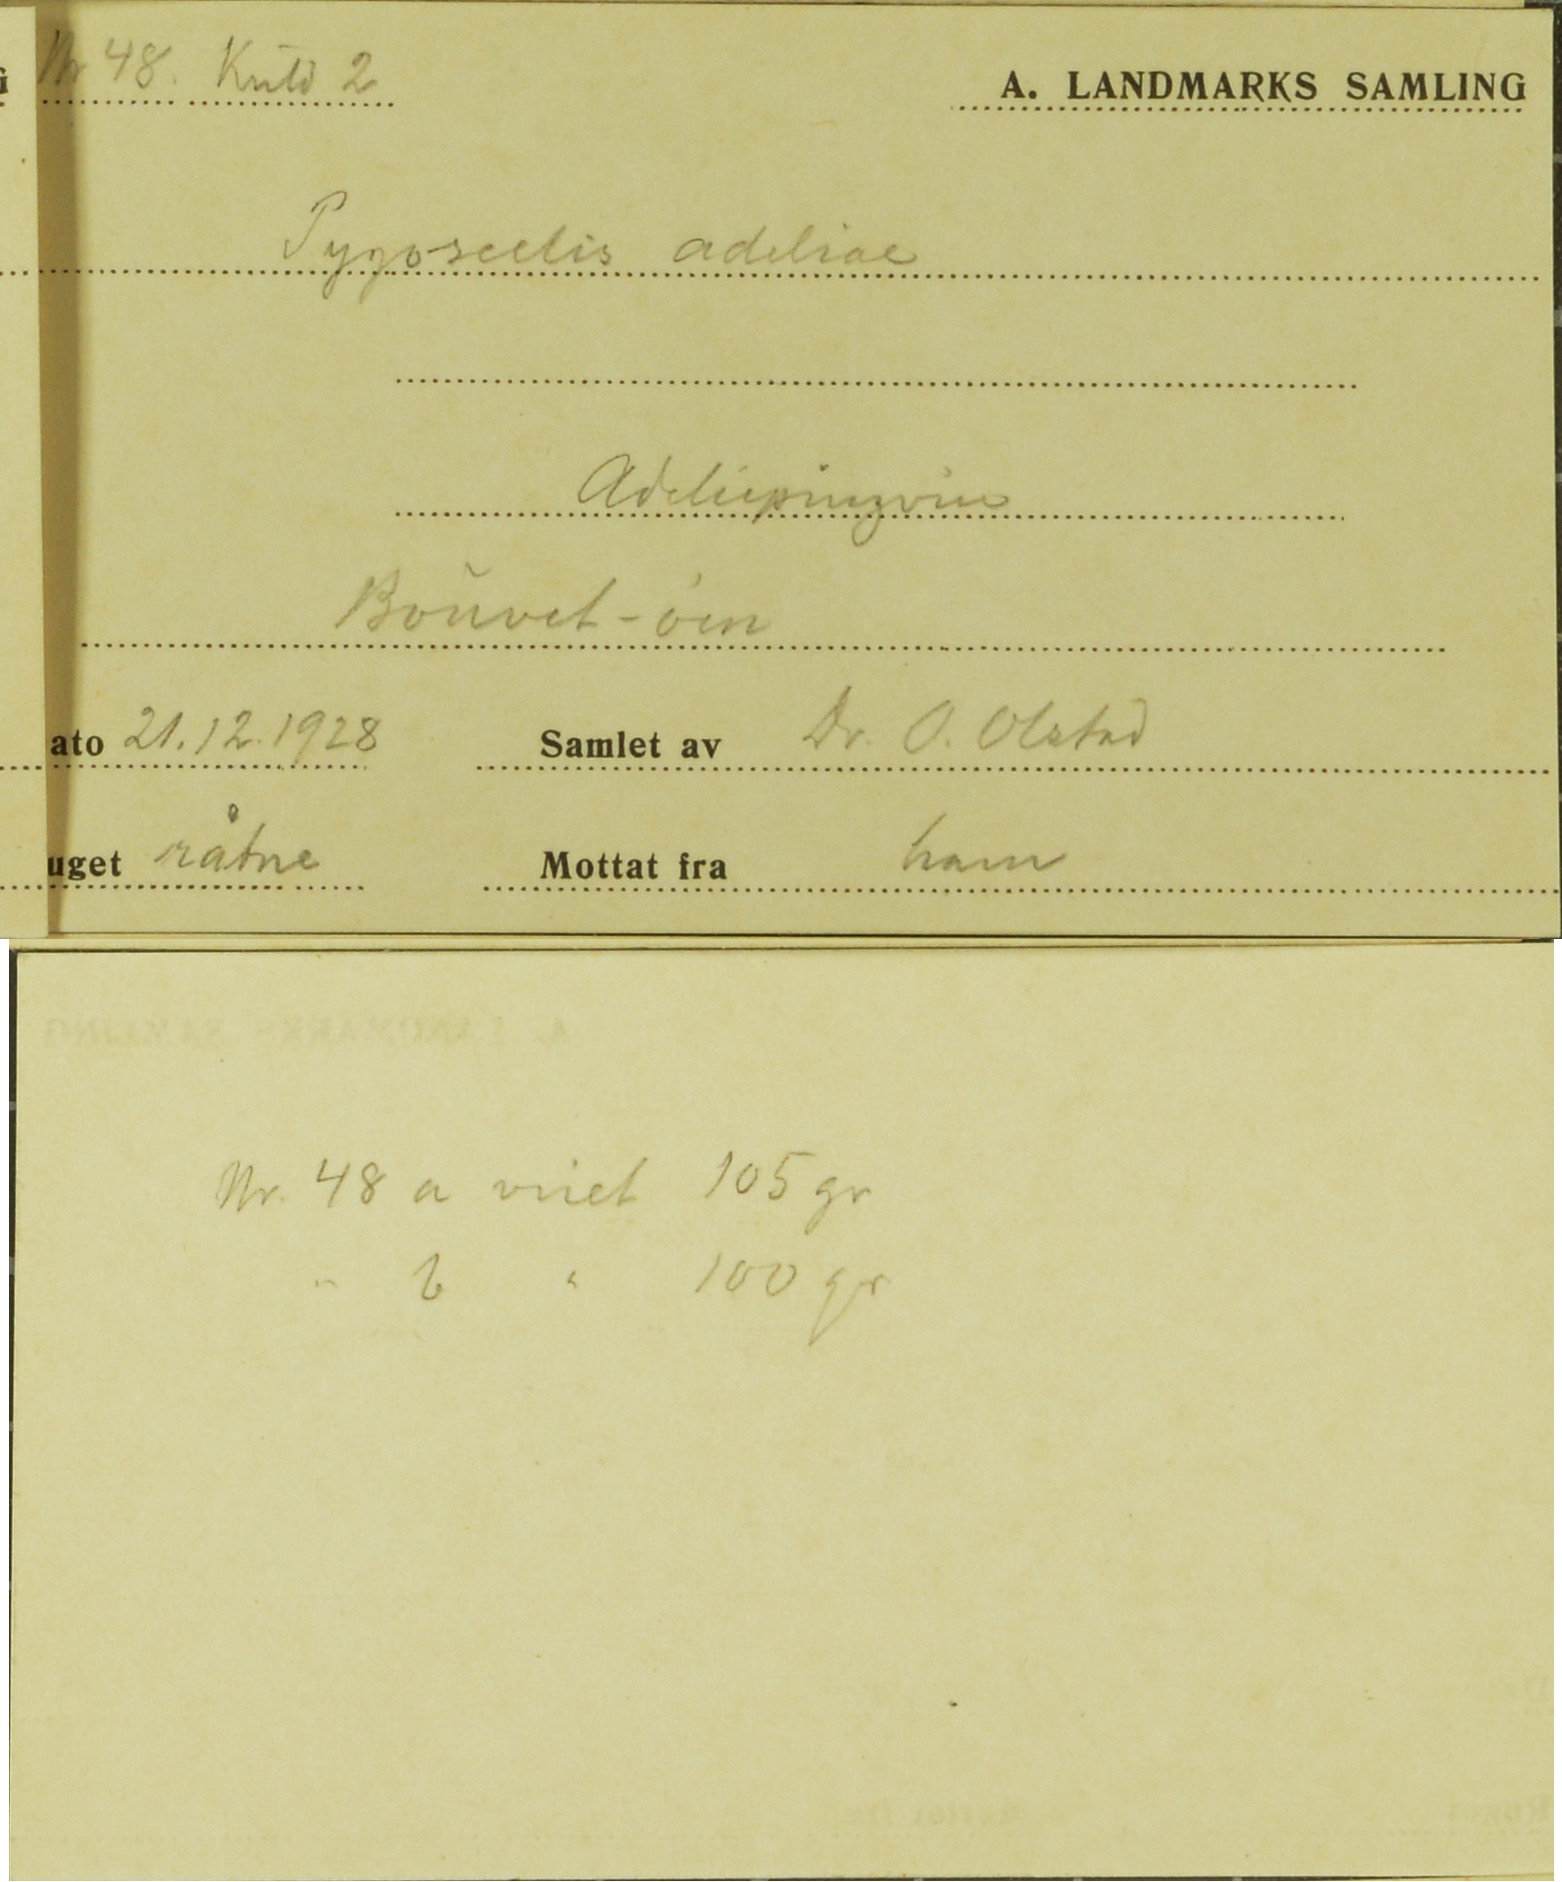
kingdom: Animalia
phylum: Chordata
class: Aves
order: Sphenisciformes
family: Spheniscidae
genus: Pygoscelis
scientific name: Pygoscelis adeliae
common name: Adelie penguin
